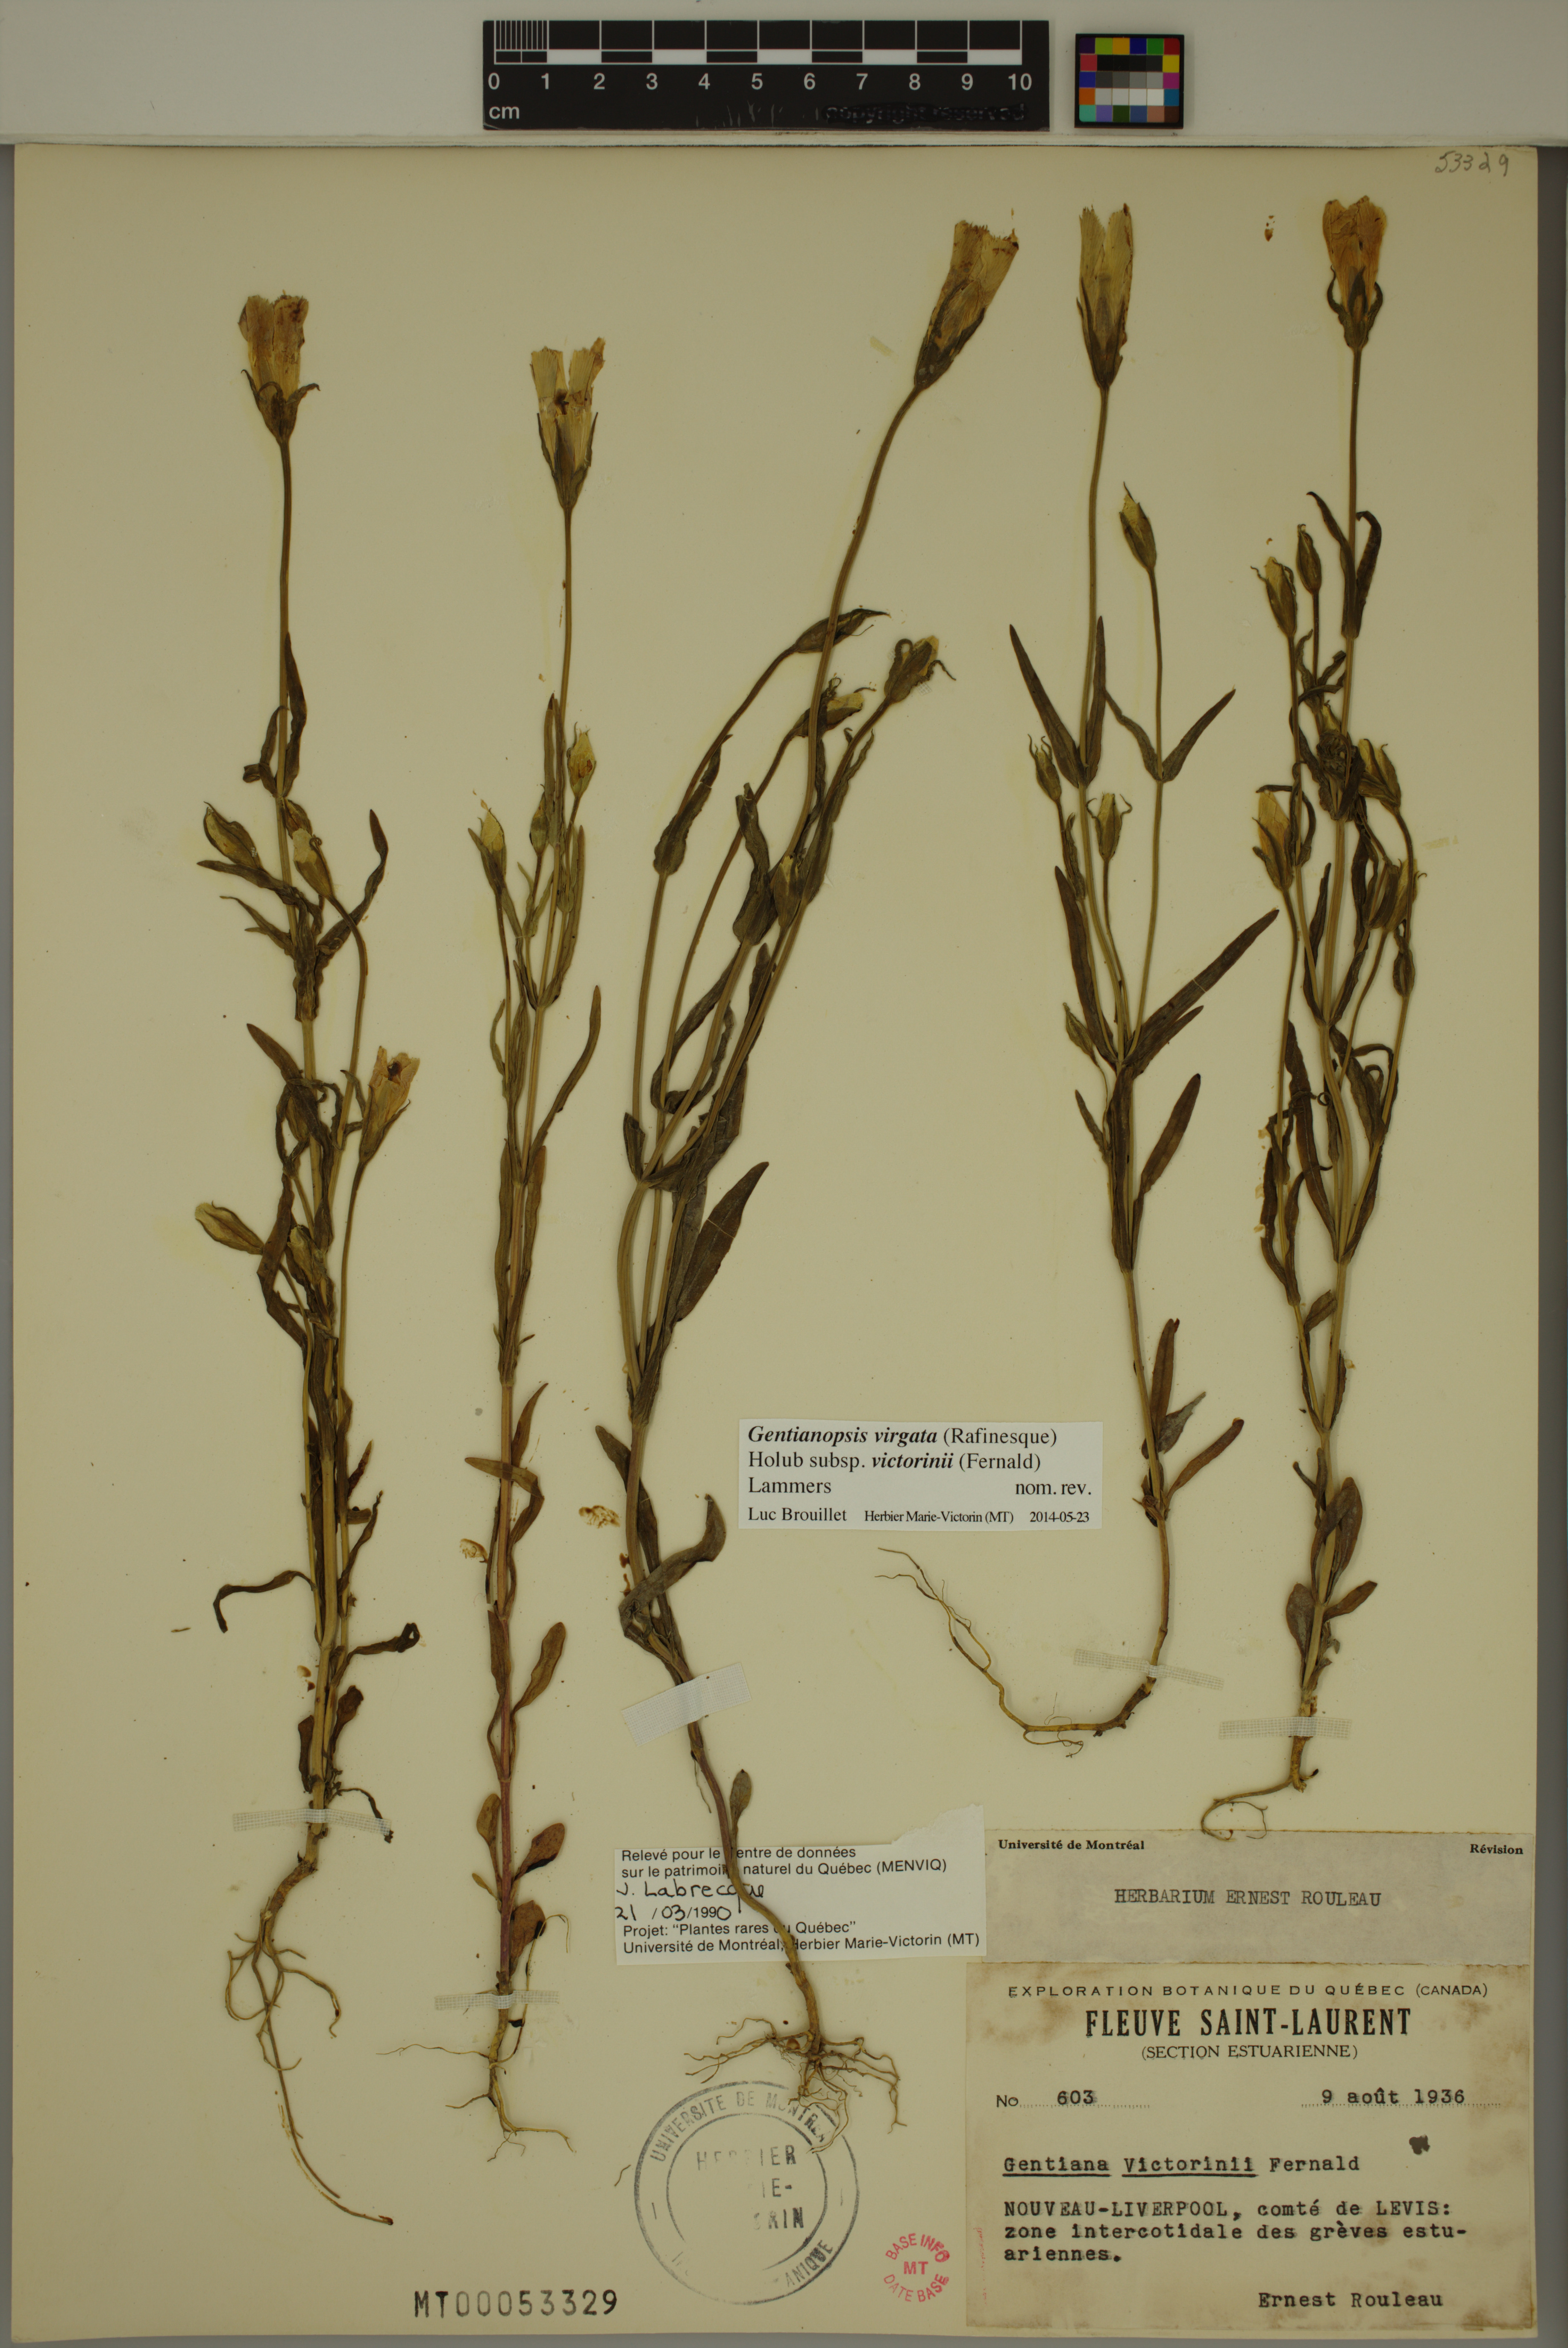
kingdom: Plantae
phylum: Tracheophyta
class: Magnoliopsida
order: Gentianales
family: Gentianaceae
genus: Gentianopsis
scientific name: Gentianopsis victorinii
